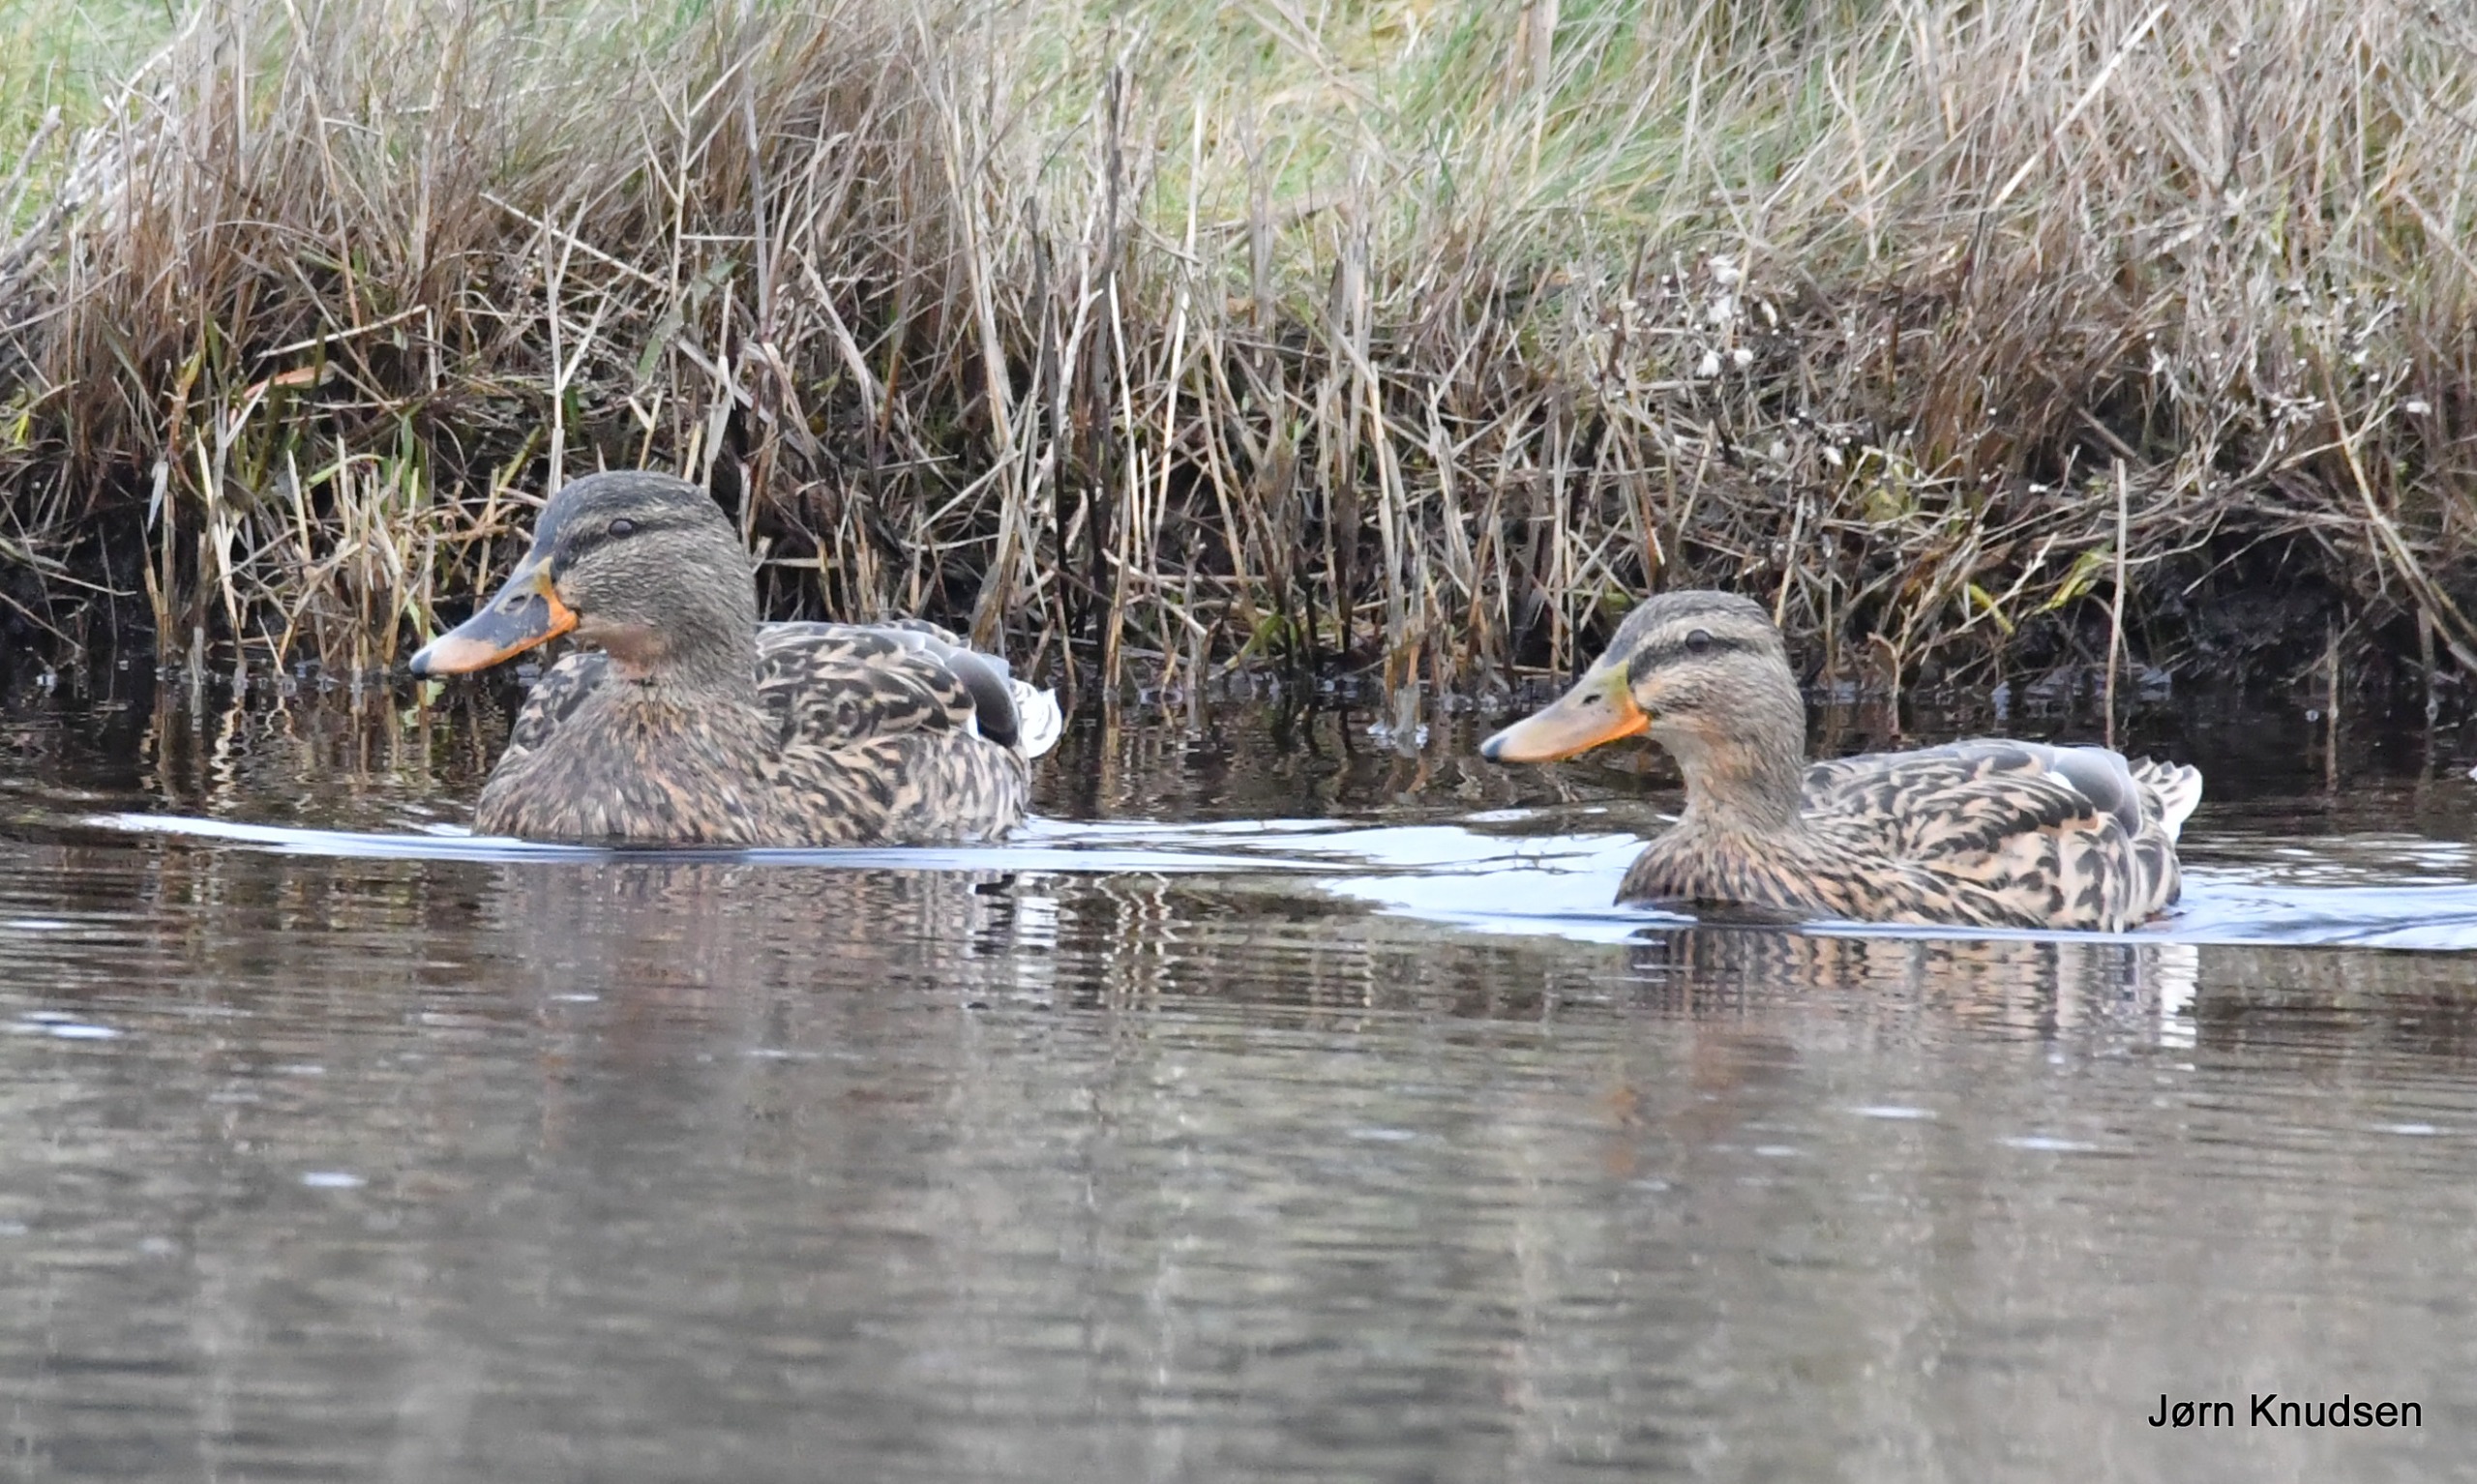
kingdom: Animalia
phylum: Chordata
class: Aves
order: Anseriformes
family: Anatidae
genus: Anas
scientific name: Anas platyrhynchos
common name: Gråand
